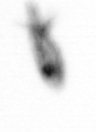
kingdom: Animalia
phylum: Arthropoda
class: Copepoda
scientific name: Copepoda
